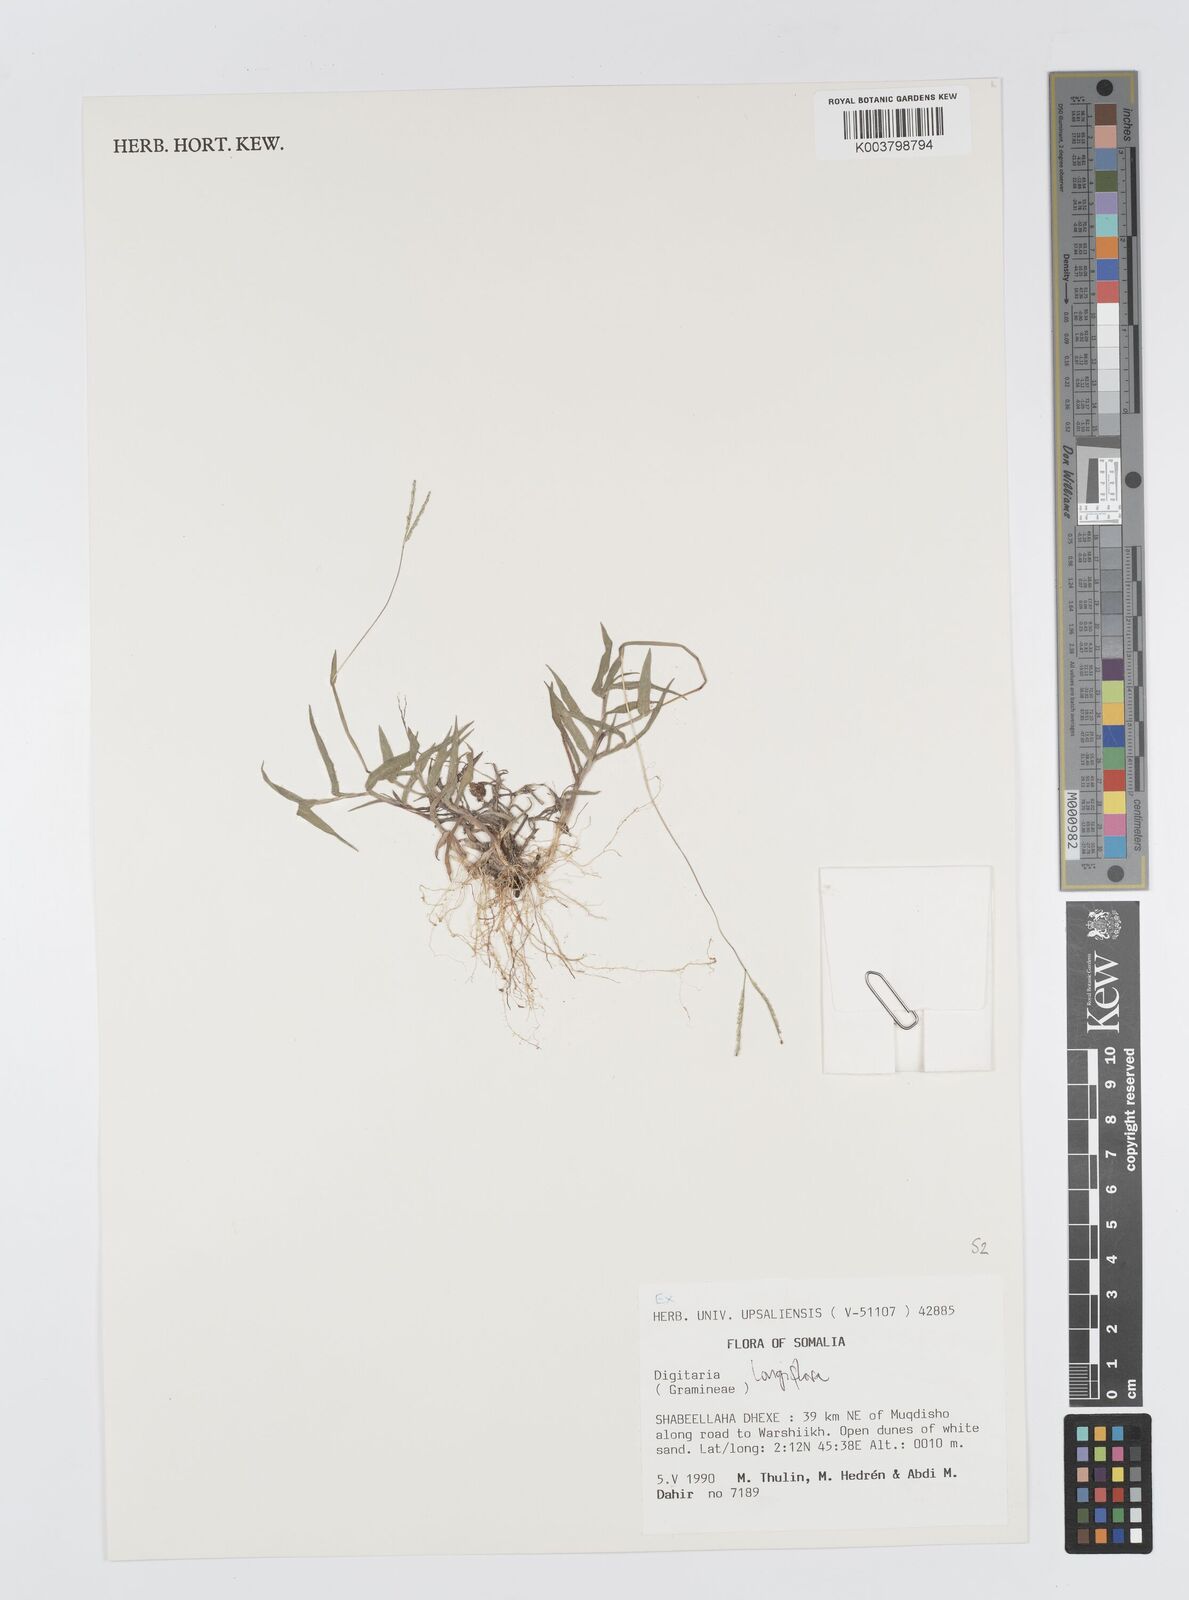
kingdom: Plantae
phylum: Tracheophyta
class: Liliopsida
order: Poales
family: Poaceae
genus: Digitaria
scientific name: Digitaria longiflora
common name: Wire crabgrass
